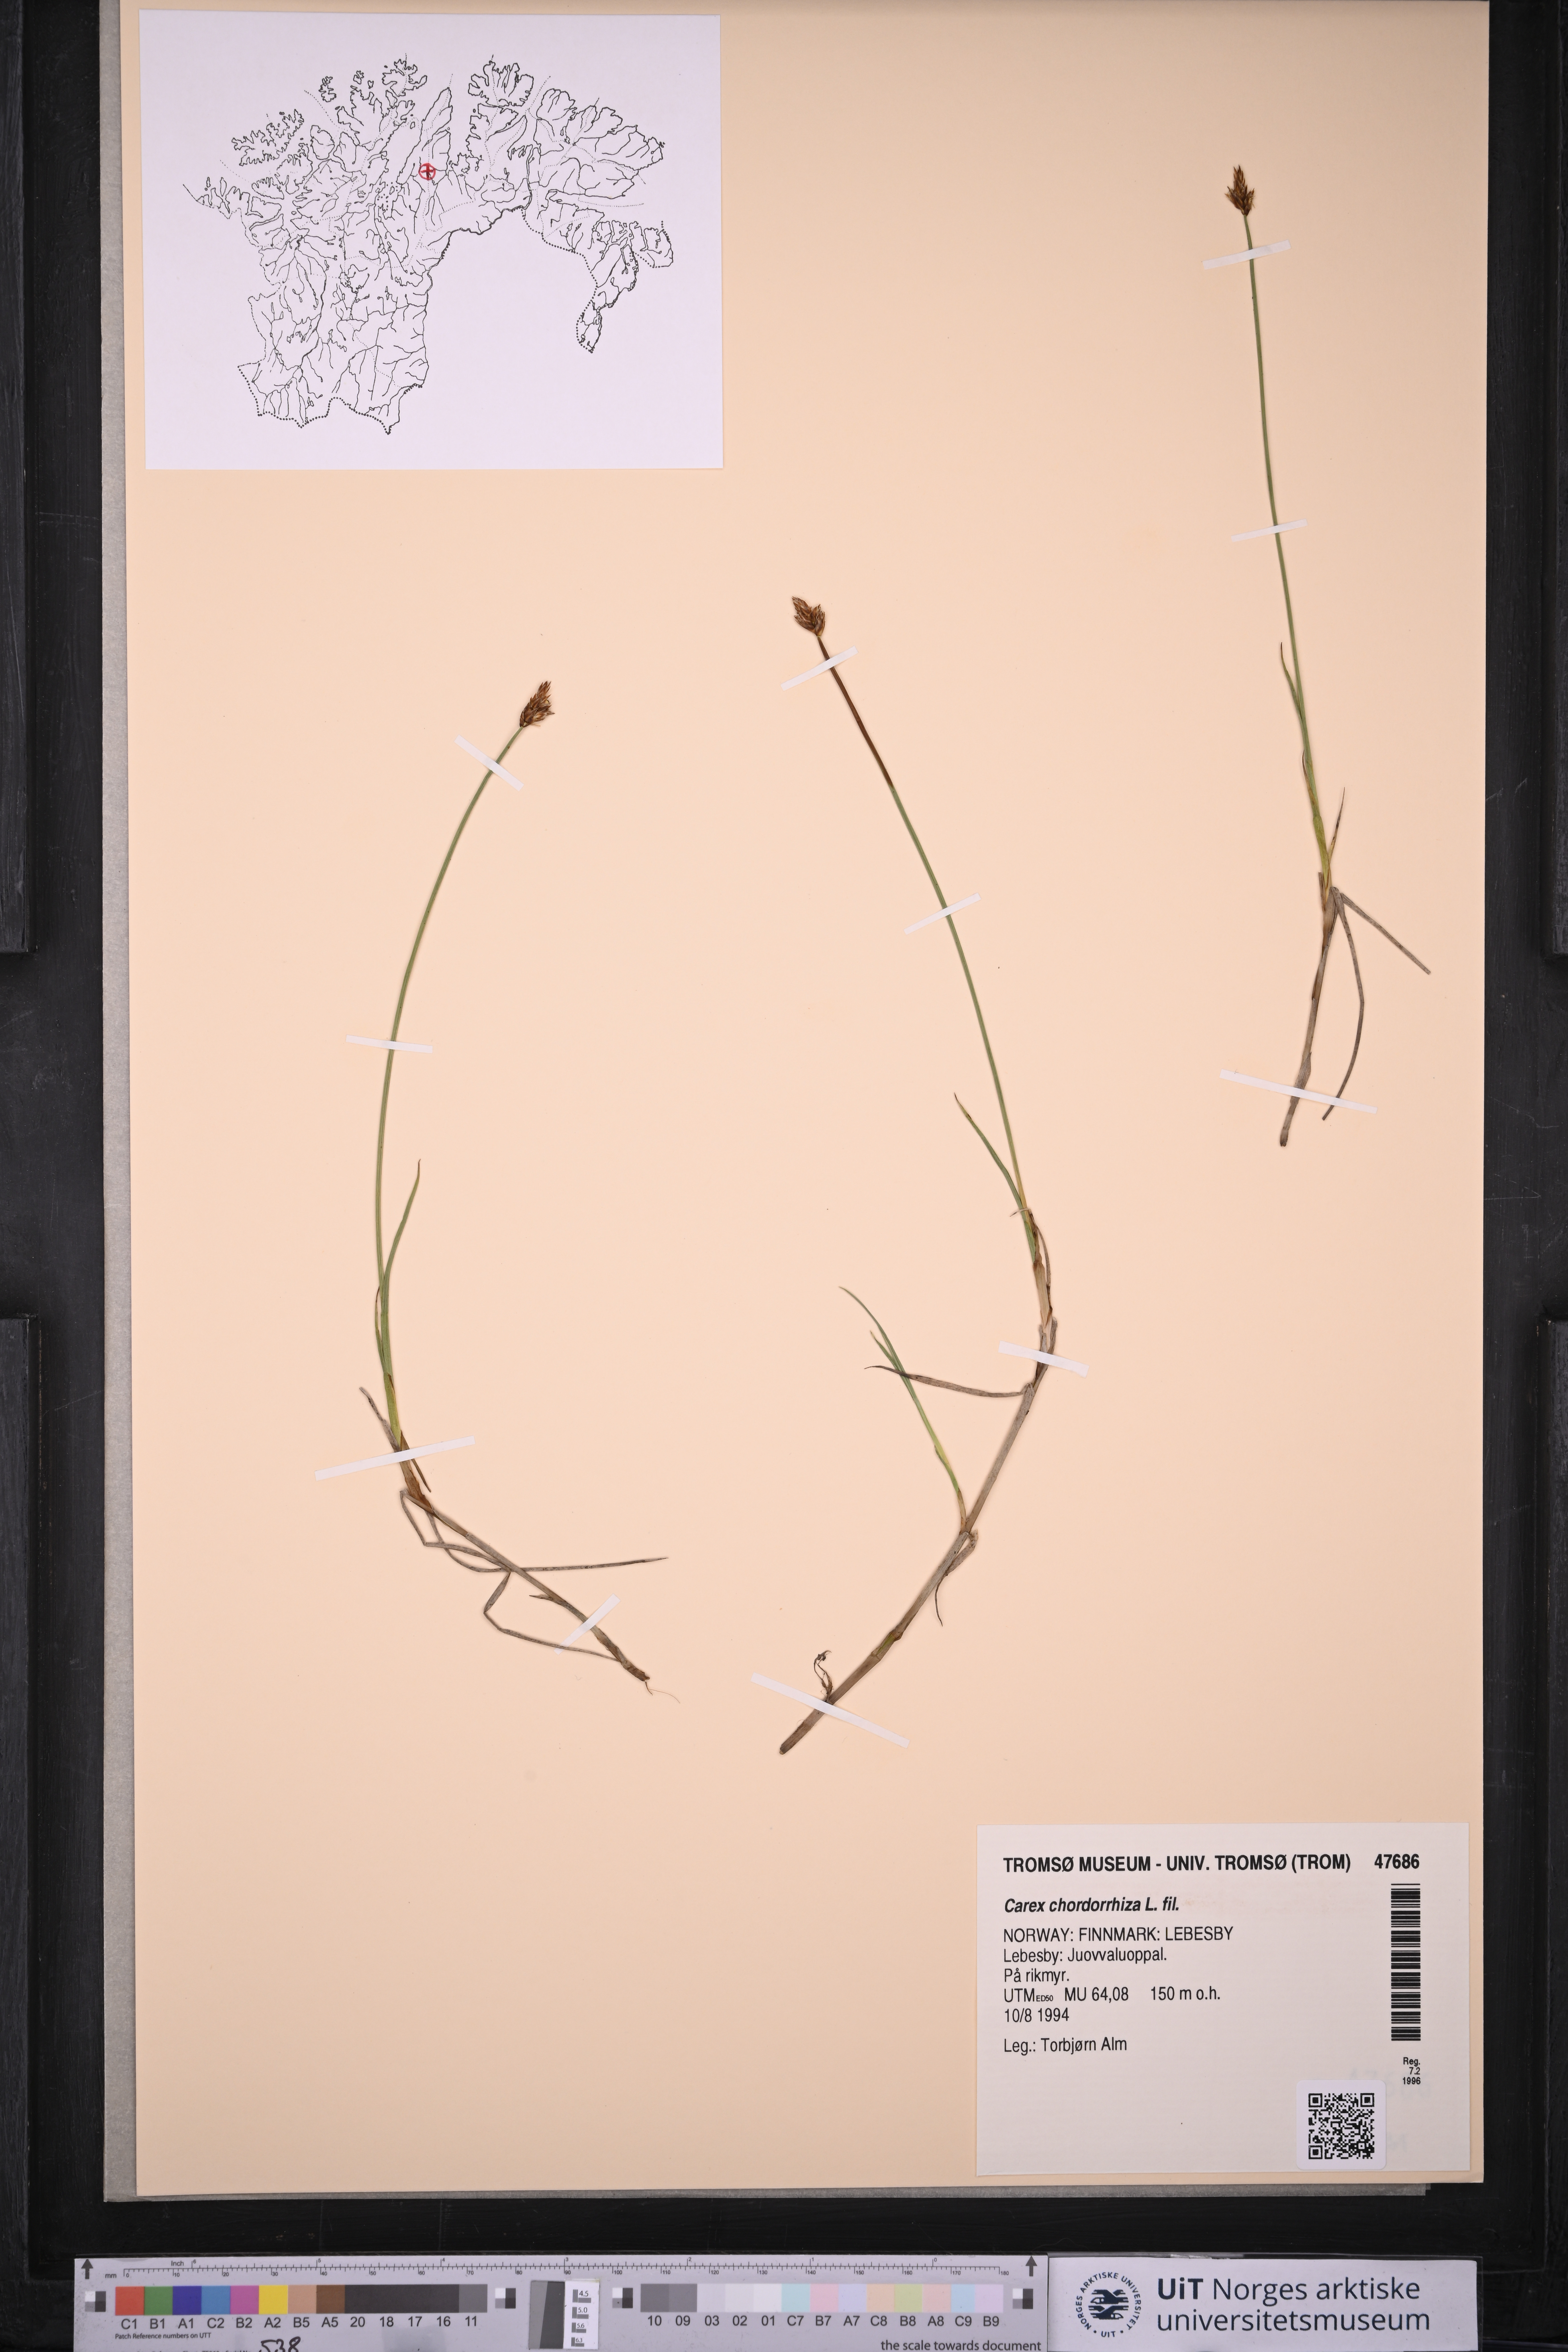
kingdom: Plantae
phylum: Tracheophyta
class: Liliopsida
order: Poales
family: Cyperaceae
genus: Carex
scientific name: Carex chordorrhiza
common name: String sedge
